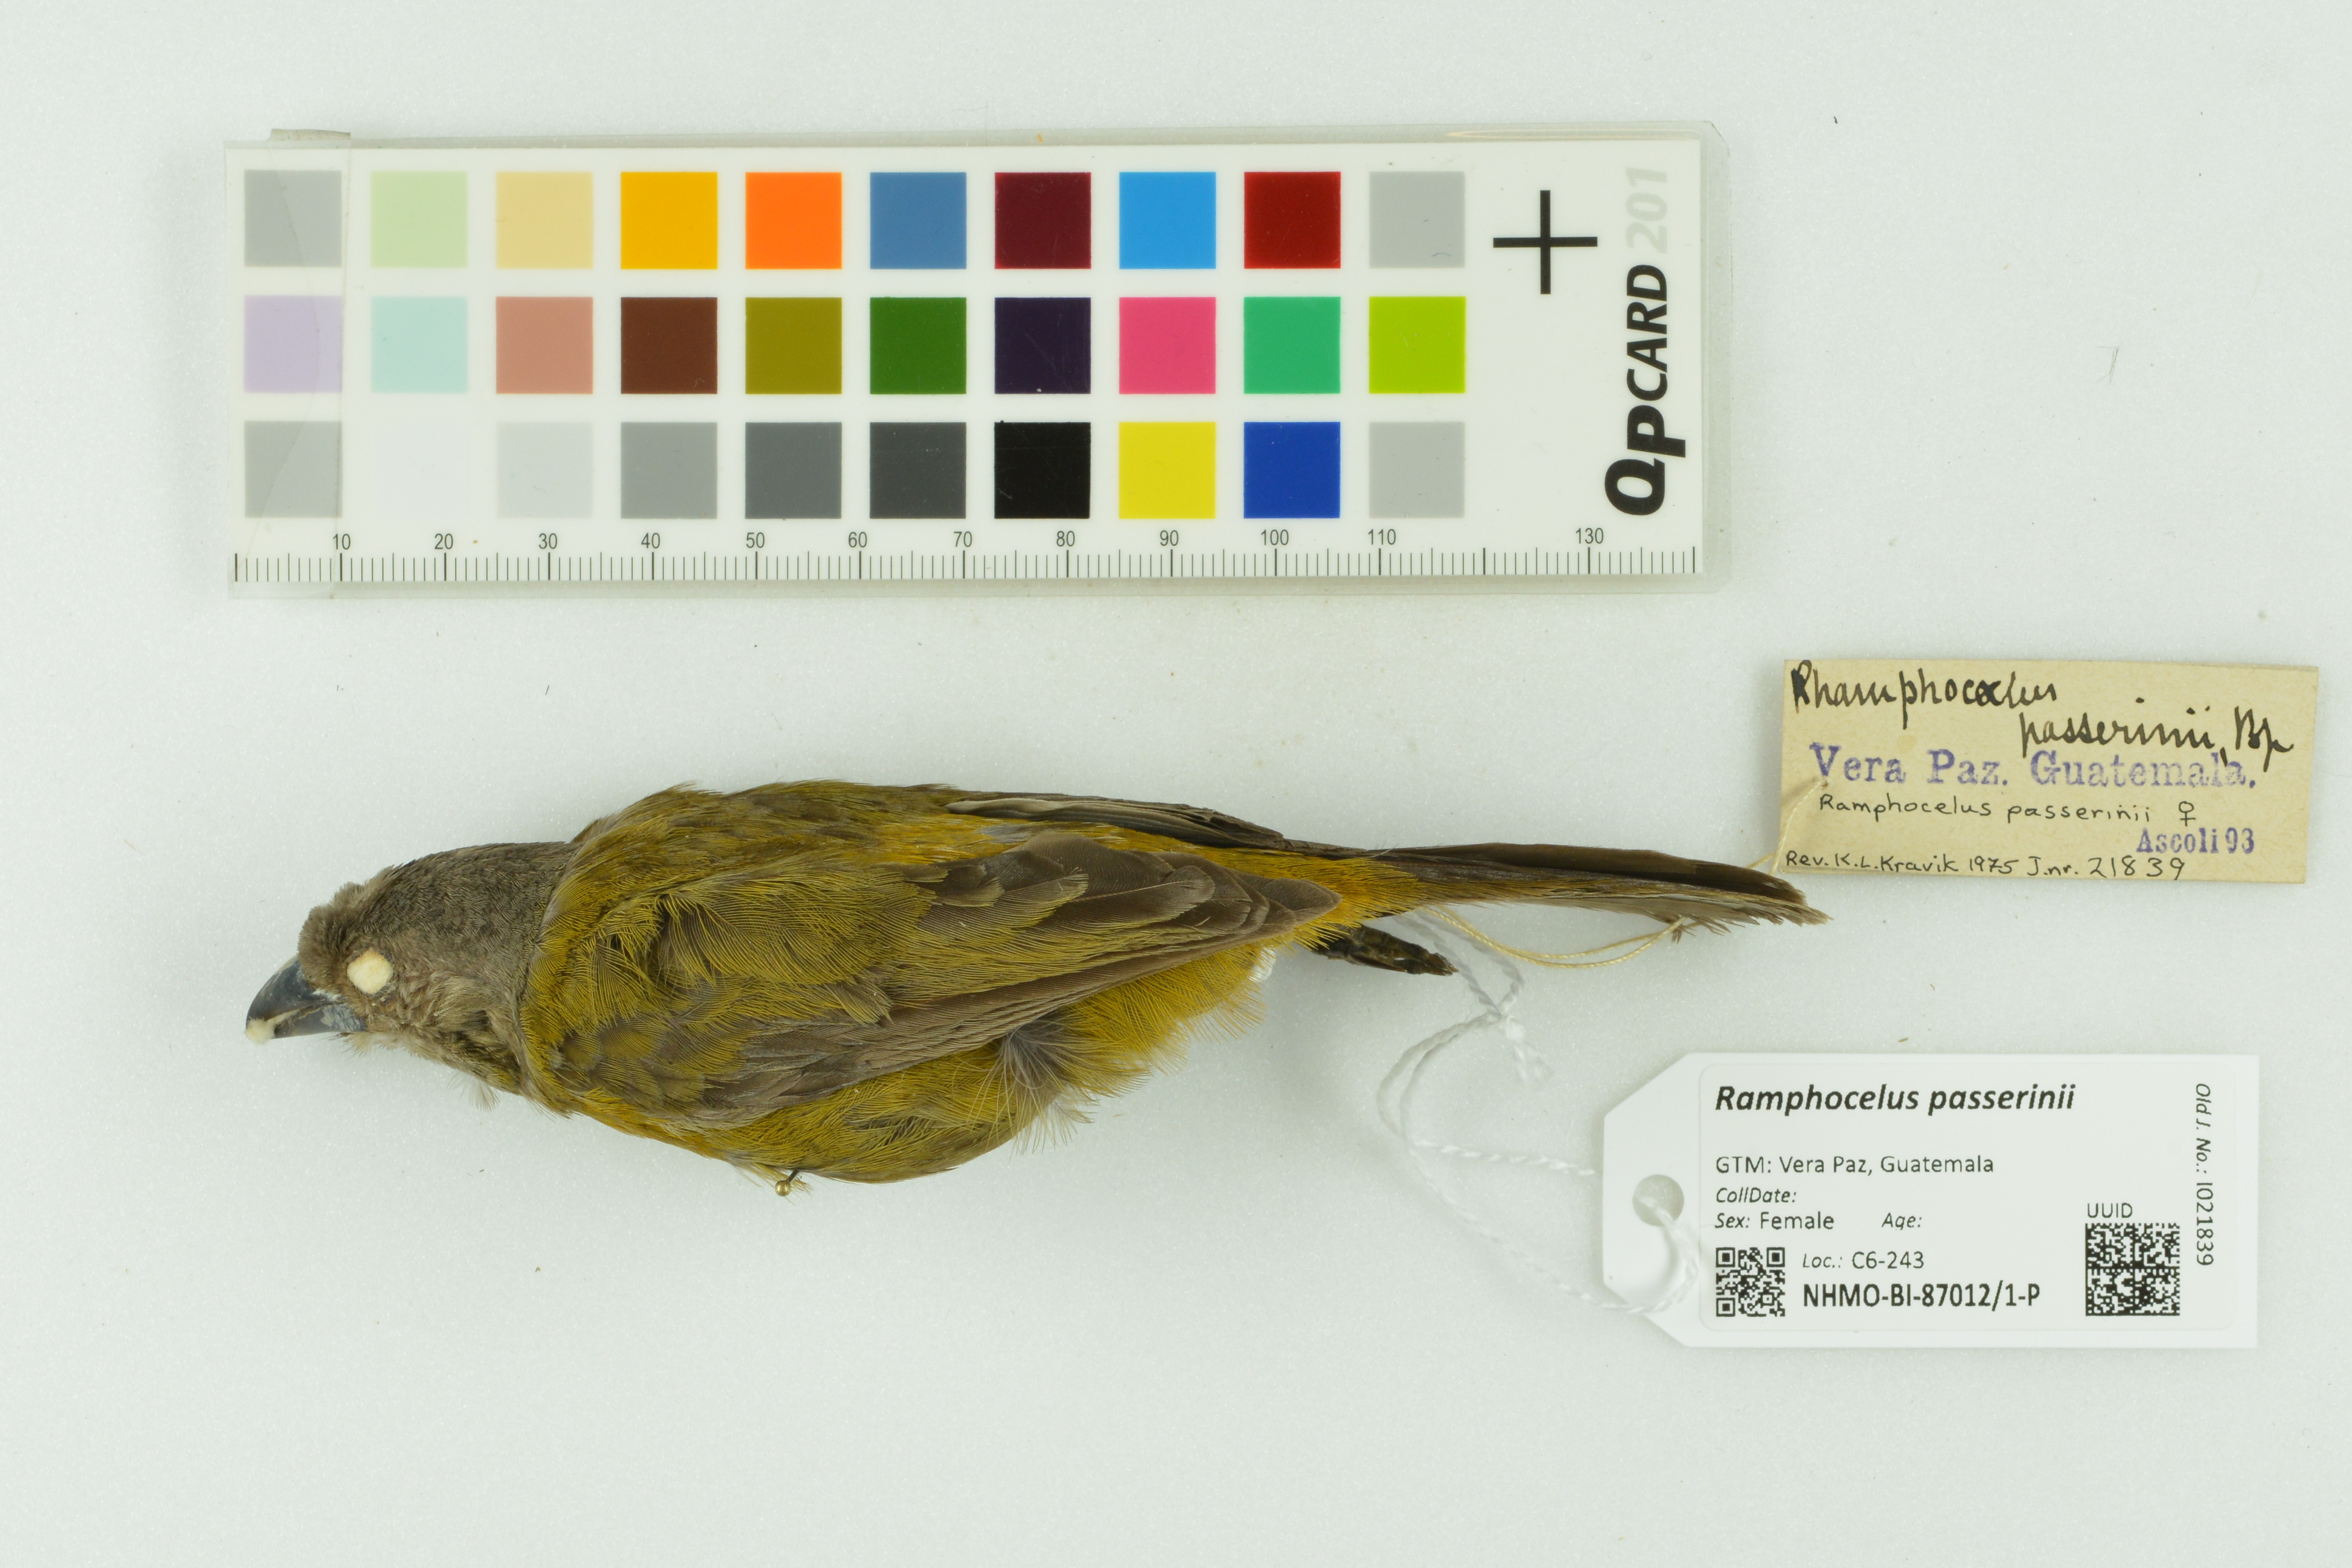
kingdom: Animalia
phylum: Chordata
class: Aves
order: Passeriformes
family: Thraupidae
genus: Ramphocelus
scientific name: Ramphocelus passerinii
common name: Passerini's tanager
